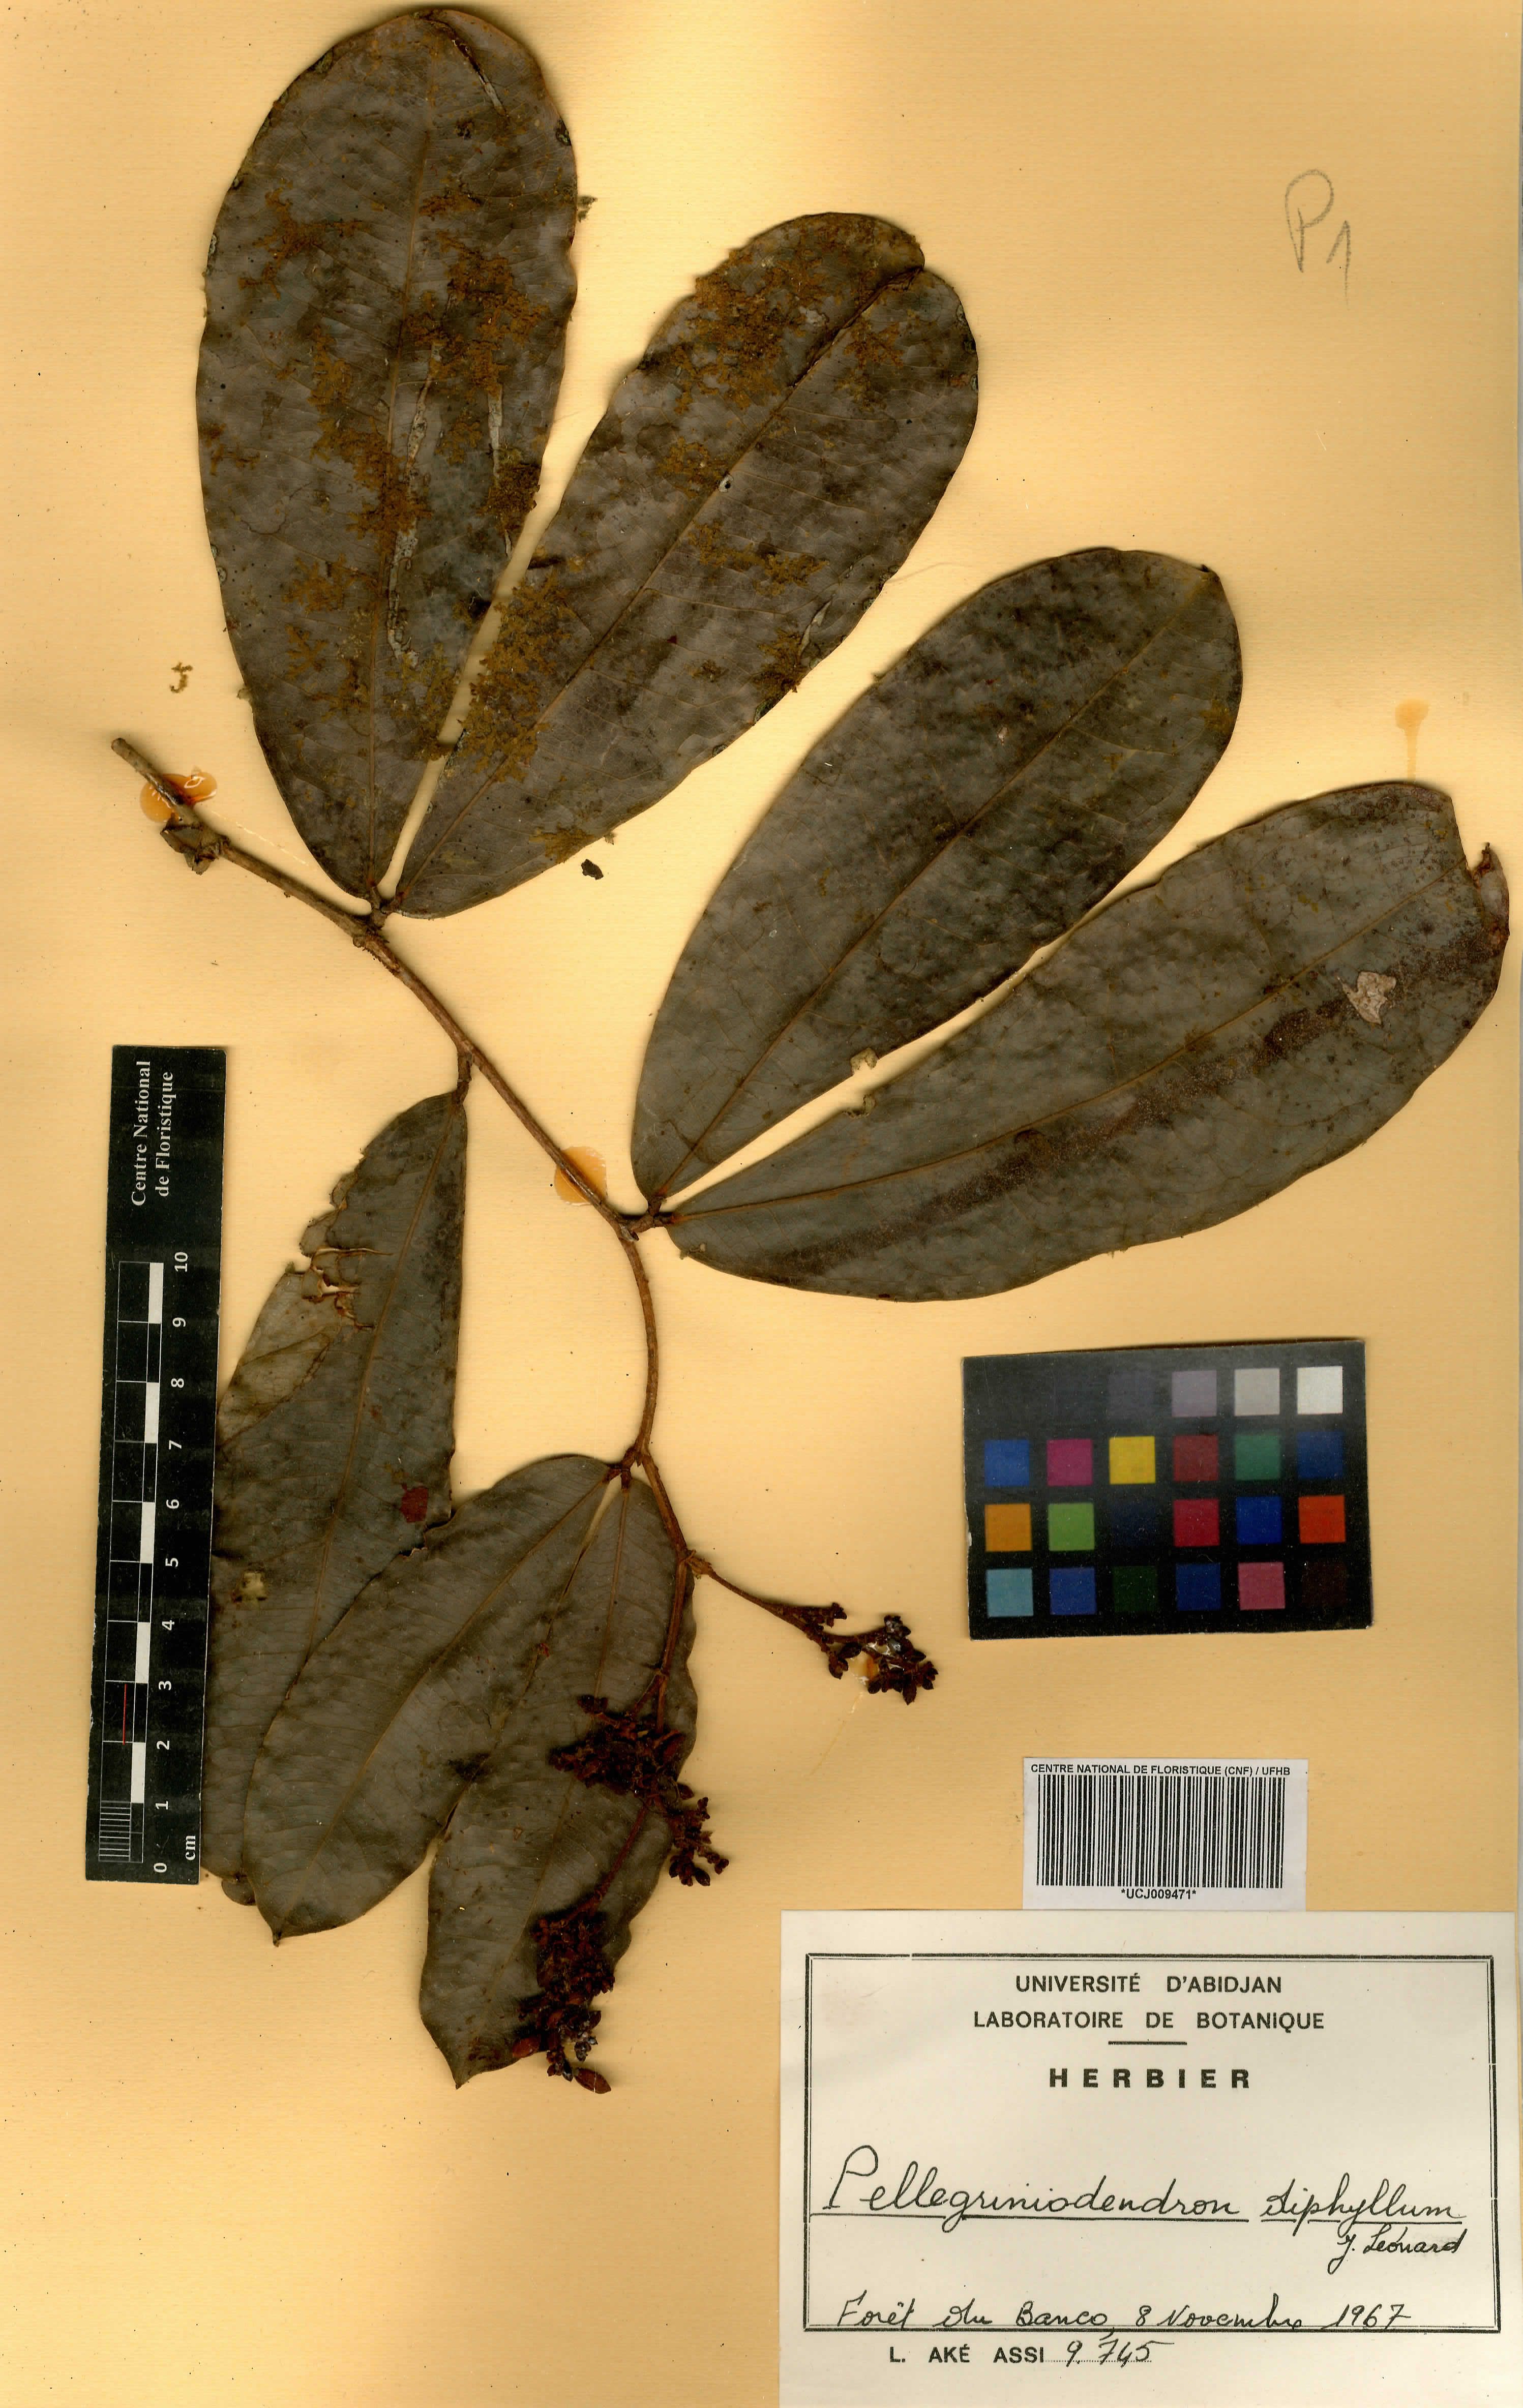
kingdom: Plantae
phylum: Tracheophyta
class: Magnoliopsida
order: Fabales
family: Fabaceae
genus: Gilbertiodendron
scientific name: Gilbertiodendron diphyllum
